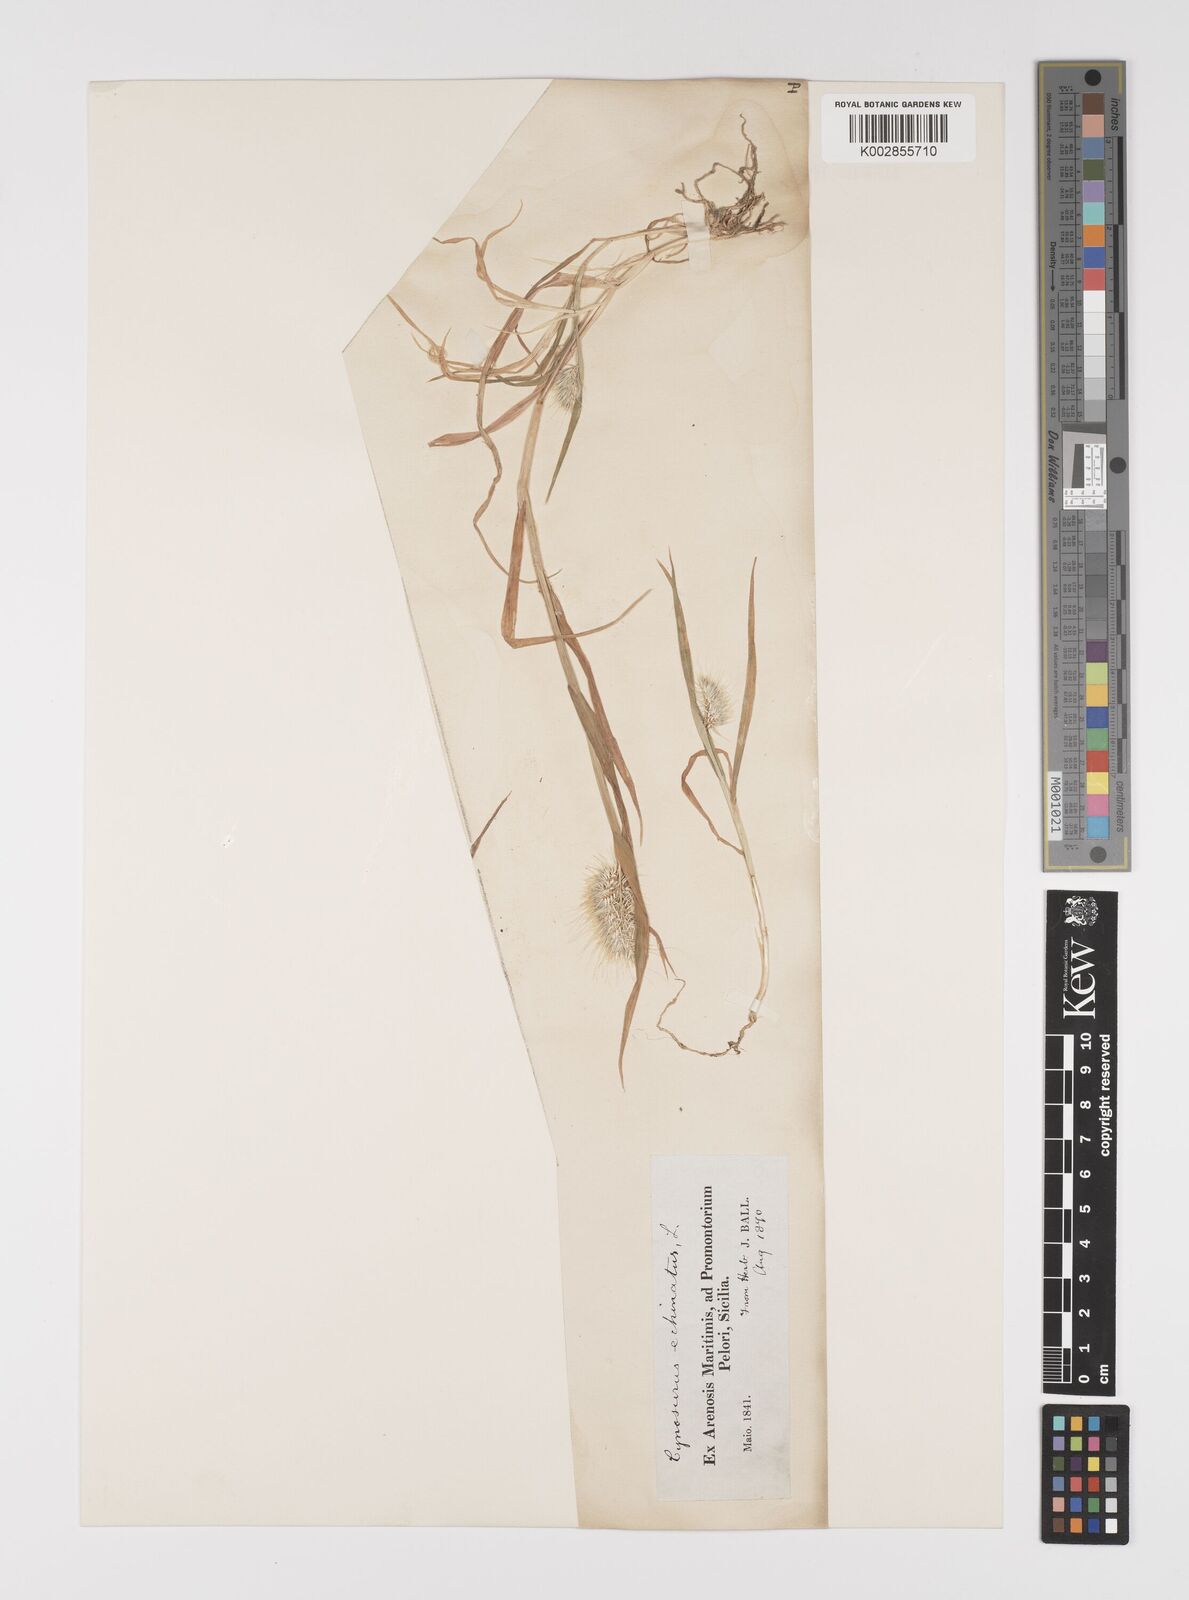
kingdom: Plantae
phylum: Tracheophyta
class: Liliopsida
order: Poales
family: Poaceae
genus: Cynosurus
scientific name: Cynosurus echinatus
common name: Rough dog's-tail
